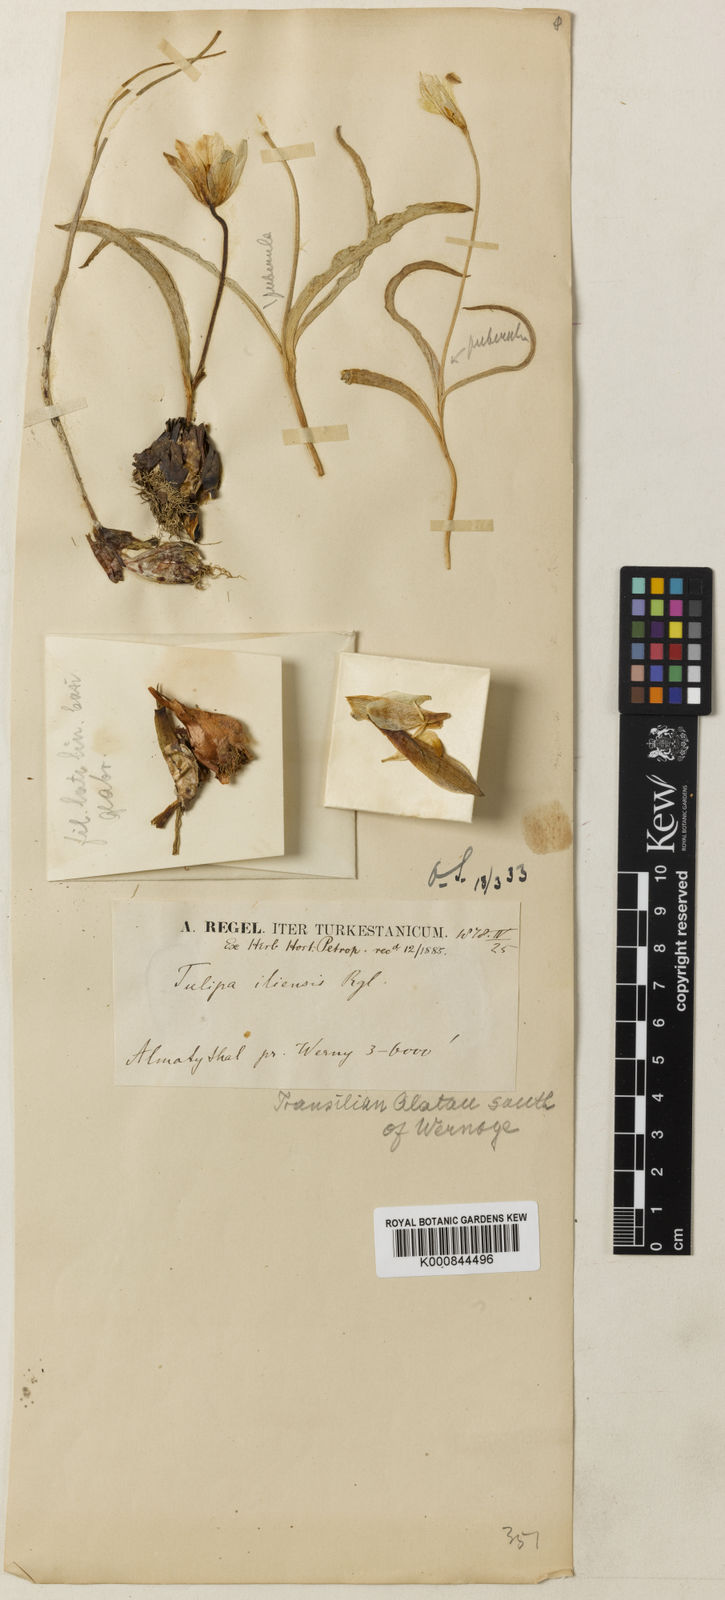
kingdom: Plantae
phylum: Tracheophyta
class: Liliopsida
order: Liliales
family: Liliaceae
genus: Tulipa
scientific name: Tulipa iliensis
